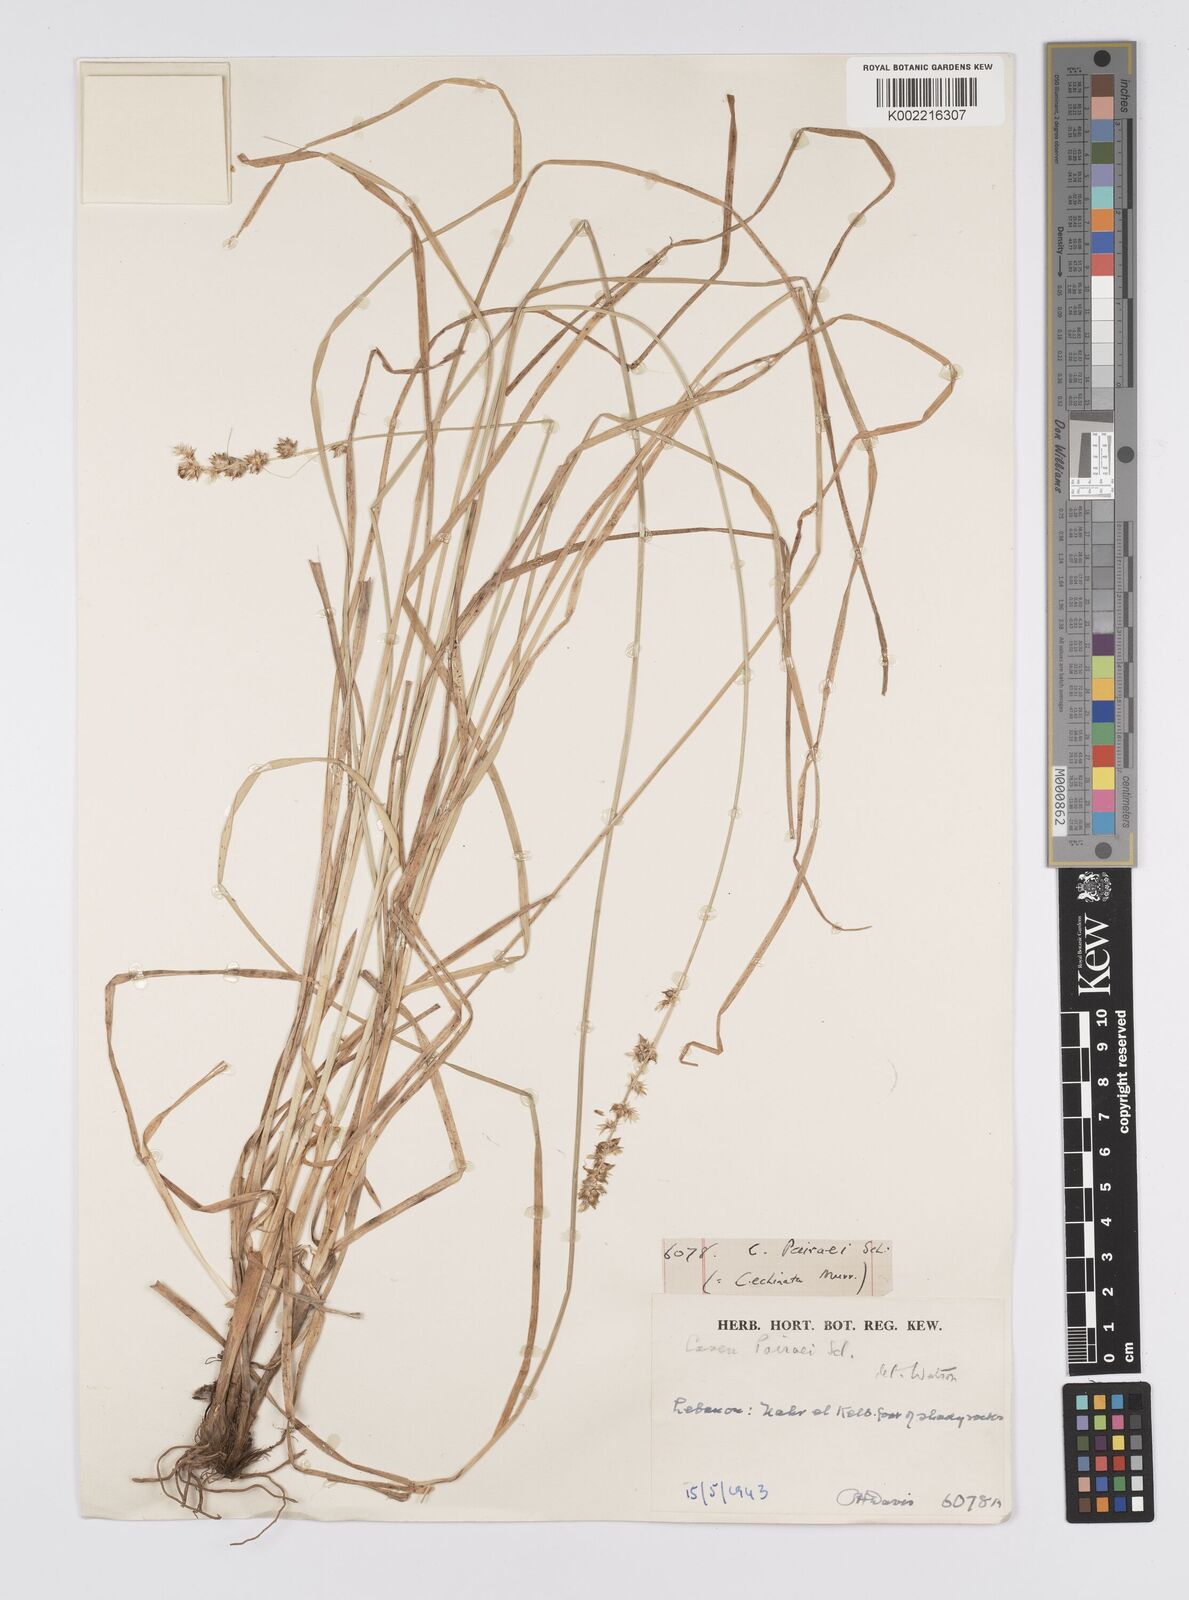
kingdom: Plantae
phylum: Tracheophyta
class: Liliopsida
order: Poales
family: Cyperaceae
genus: Carex
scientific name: Carex coriogyne
